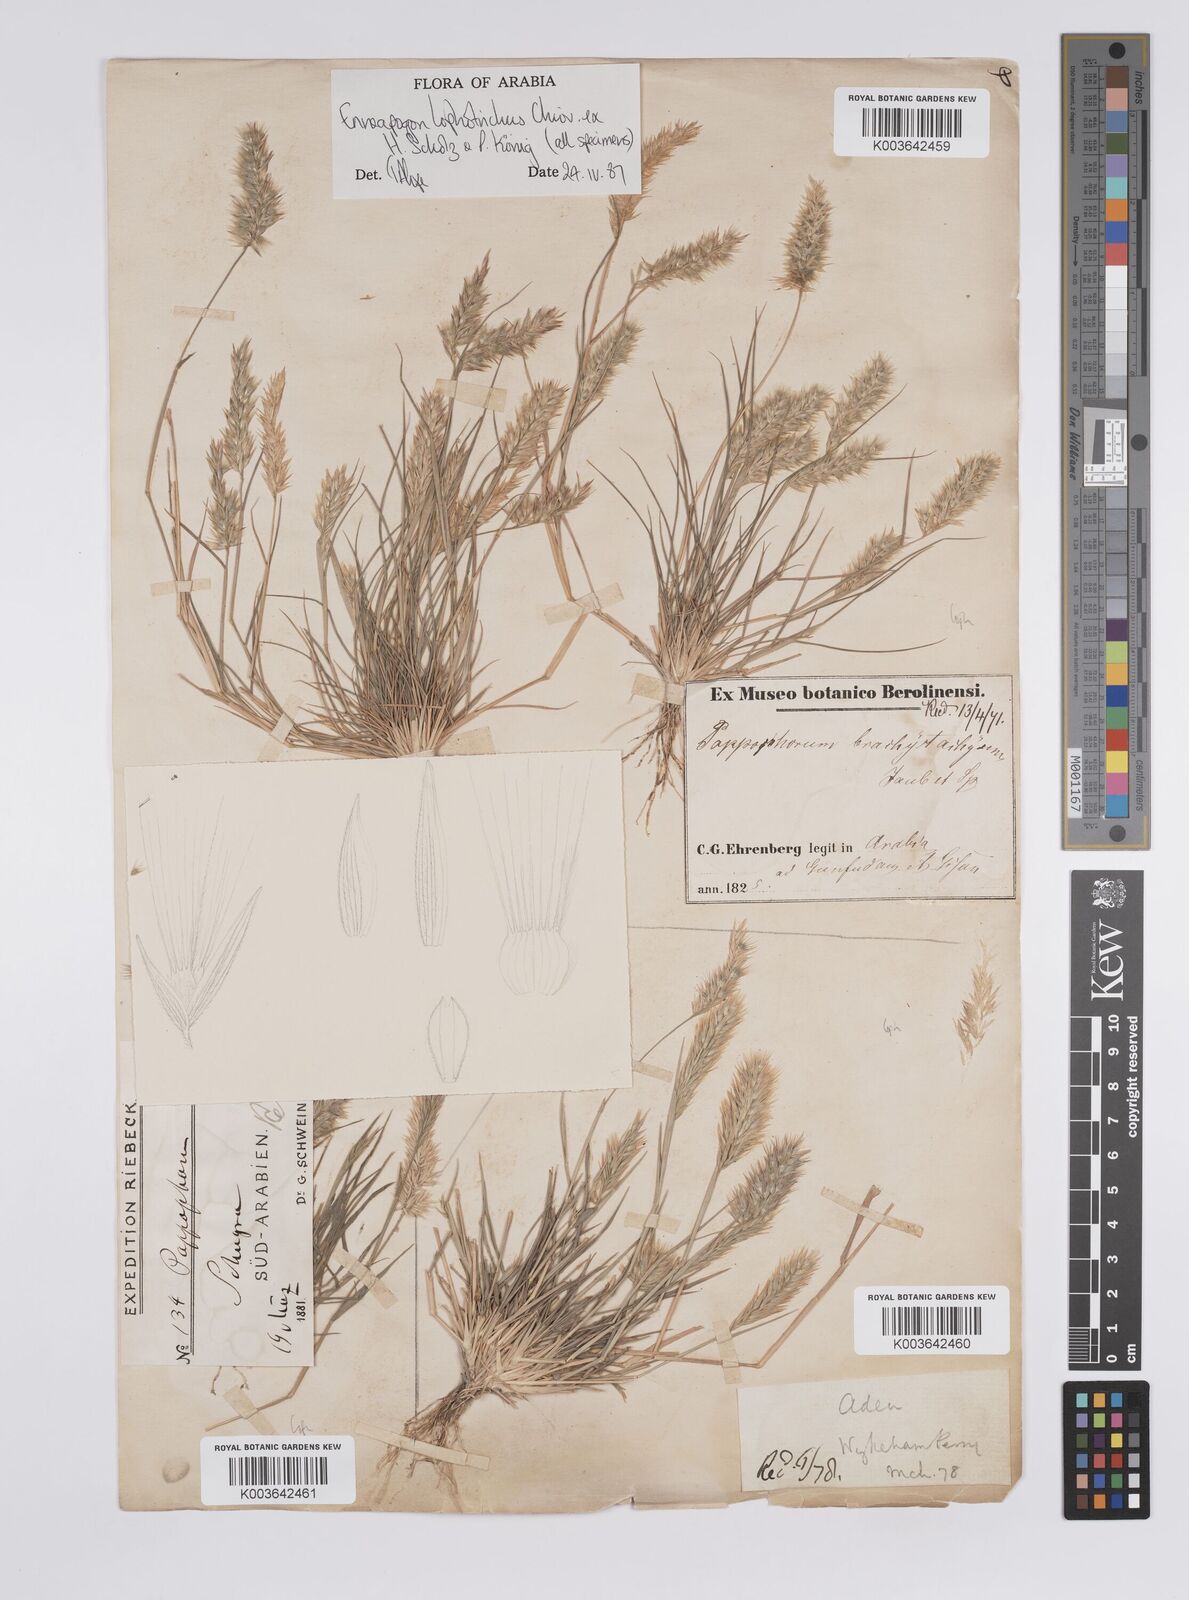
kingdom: Plantae
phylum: Tracheophyta
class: Liliopsida
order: Poales
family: Poaceae
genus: Enneapogon
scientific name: Enneapogon lophotrichus
